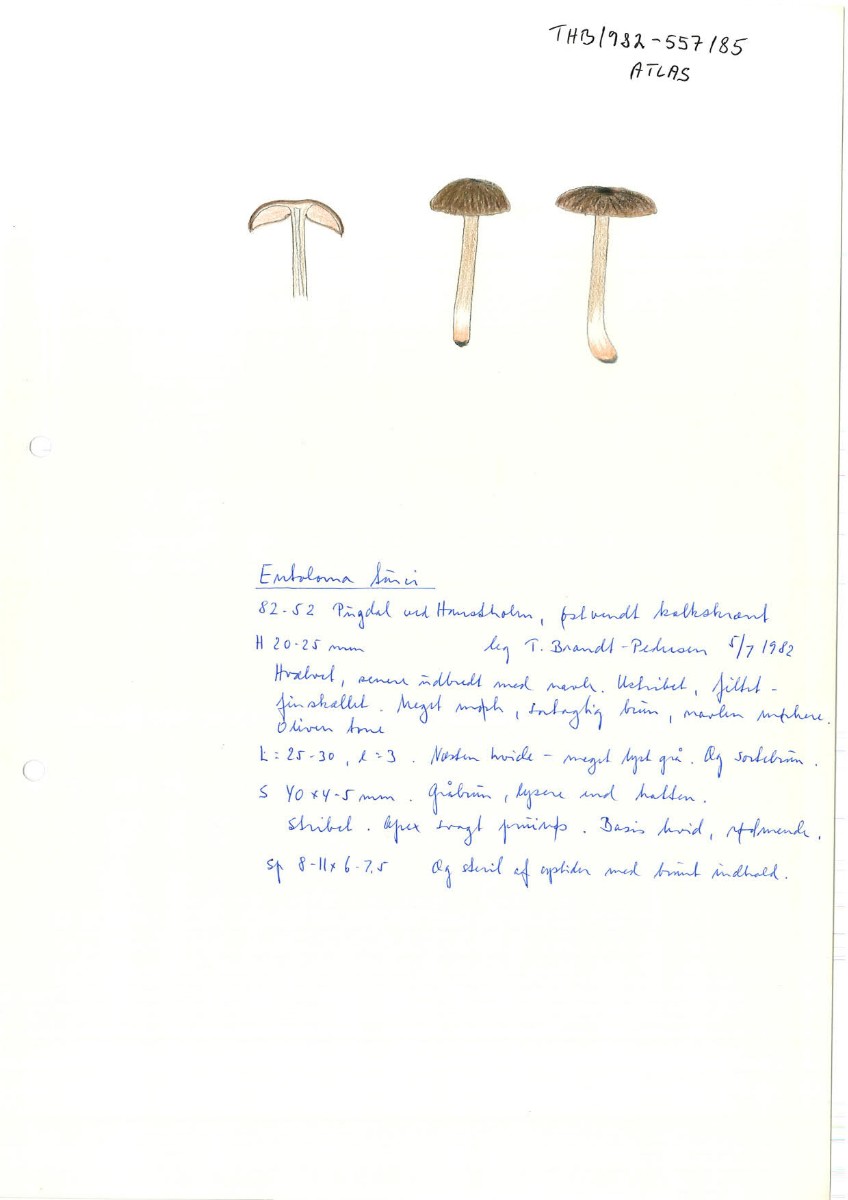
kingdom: Fungi
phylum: Basidiomycota
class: Agaricomycetes
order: Agaricales
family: Entolomataceae
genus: Entoloma
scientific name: Entoloma turci
